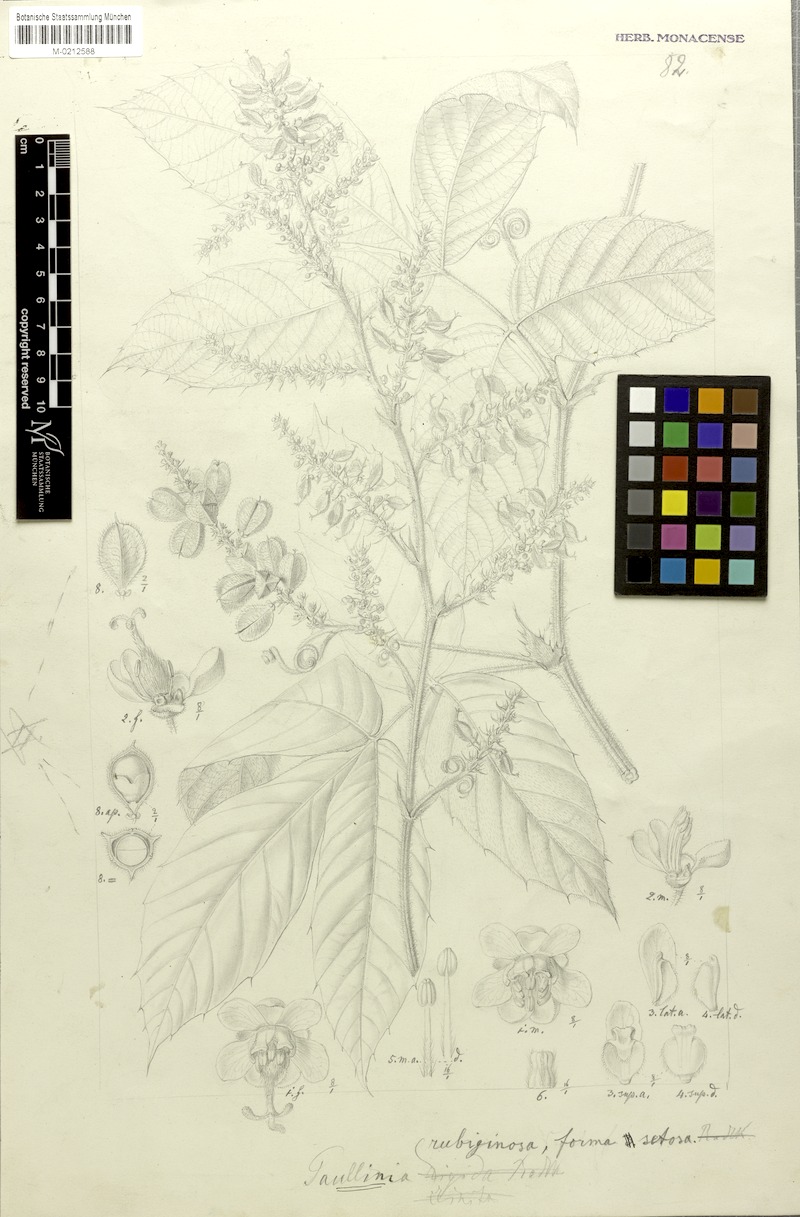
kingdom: Plantae
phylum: Tracheophyta
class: Magnoliopsida
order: Sapindales
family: Sapindaceae
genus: Paullinia
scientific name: Paullinia rubiginosa
